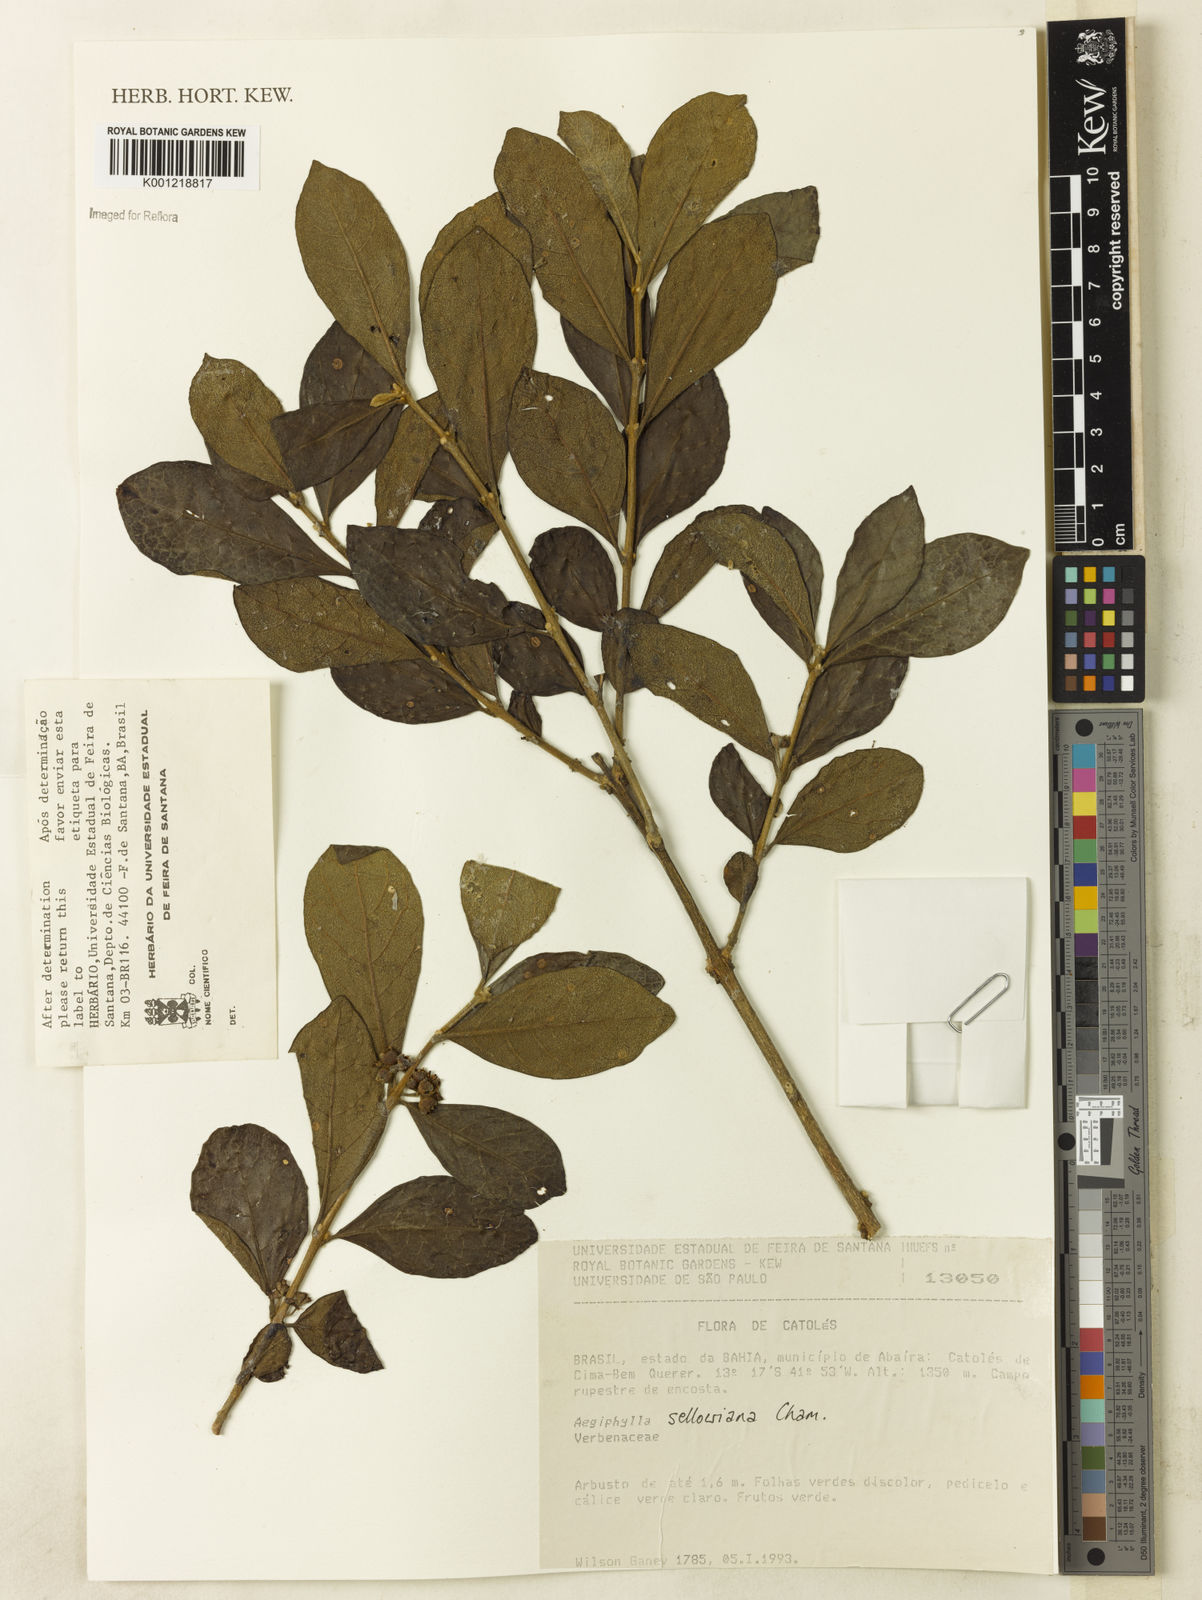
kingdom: Plantae
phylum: Tracheophyta
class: Magnoliopsida
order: Lamiales
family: Lamiaceae
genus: Aegiphila
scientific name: Aegiphila verticillata
